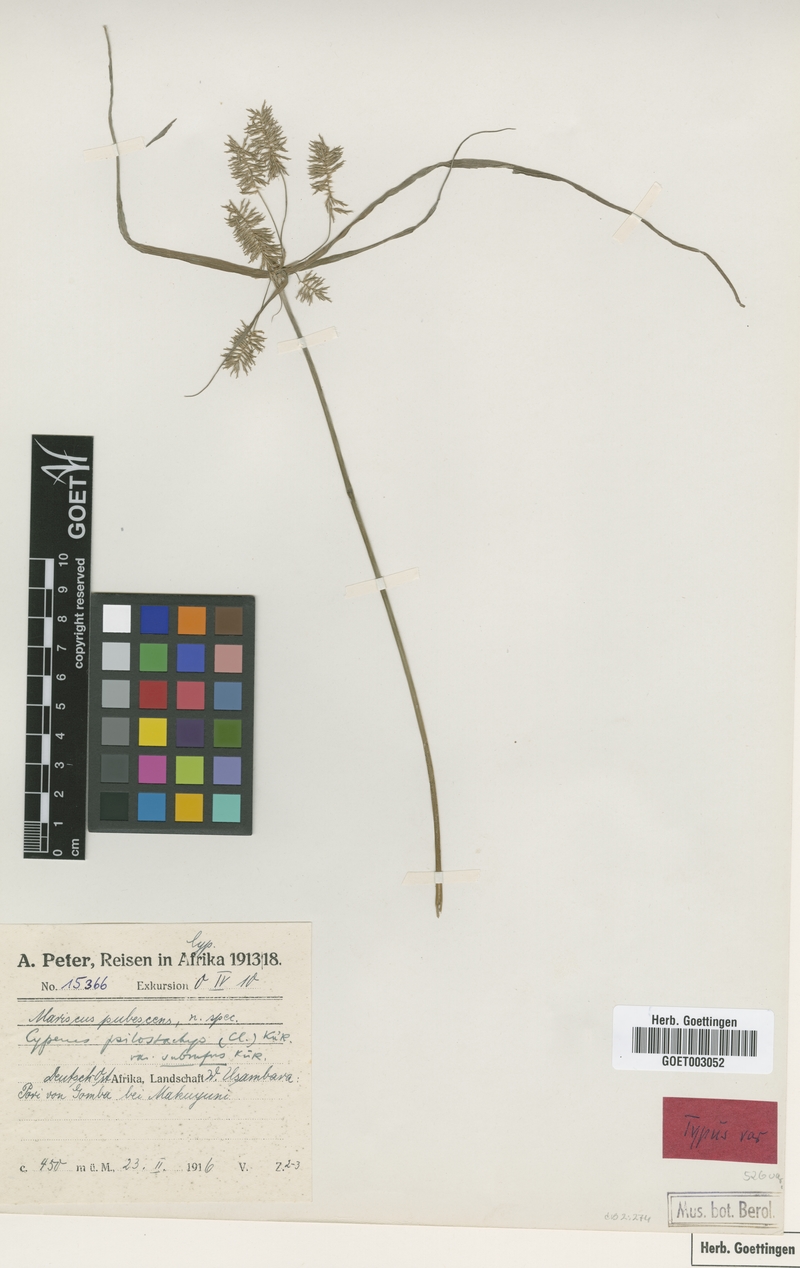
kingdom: Plantae
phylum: Tracheophyta
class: Liliopsida
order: Poales
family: Cyperaceae
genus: Cyperus
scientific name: Cyperus trigonellus
